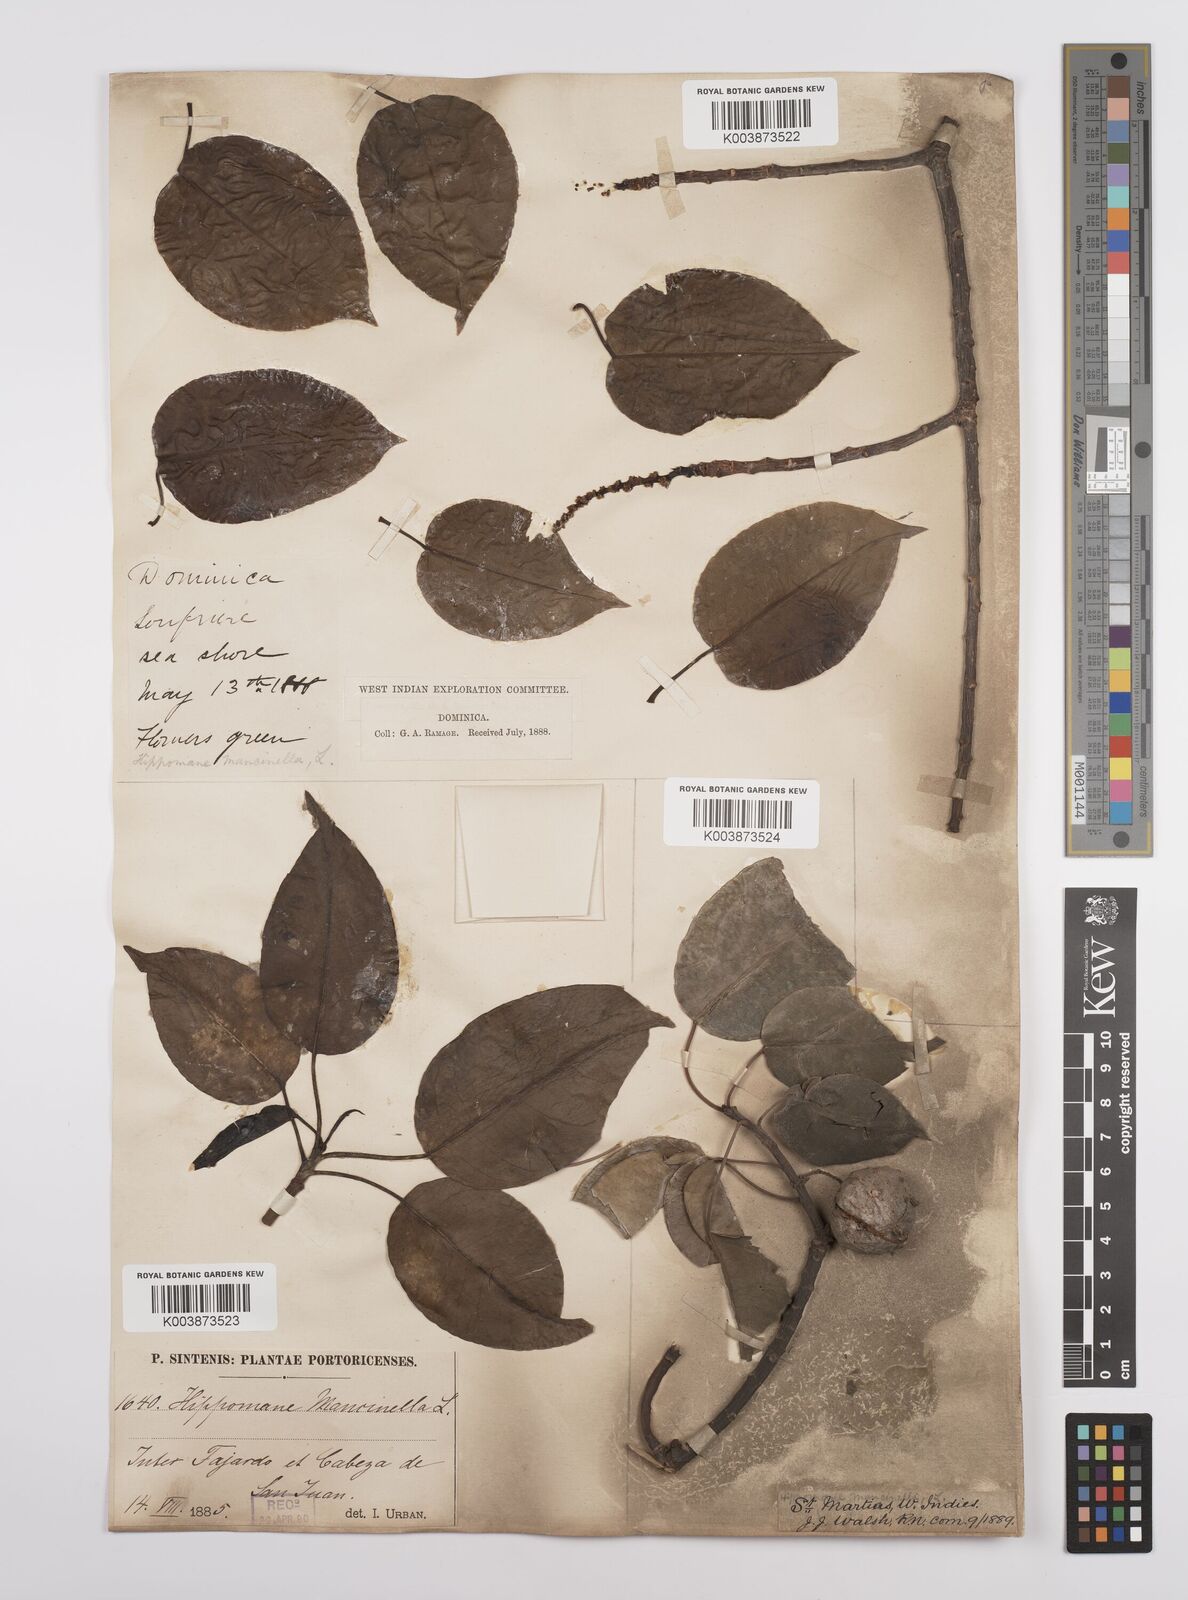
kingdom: Plantae
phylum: Tracheophyta
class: Magnoliopsida
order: Malpighiales
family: Euphorbiaceae
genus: Hippomane
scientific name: Hippomane mancinella
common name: Manchineel
